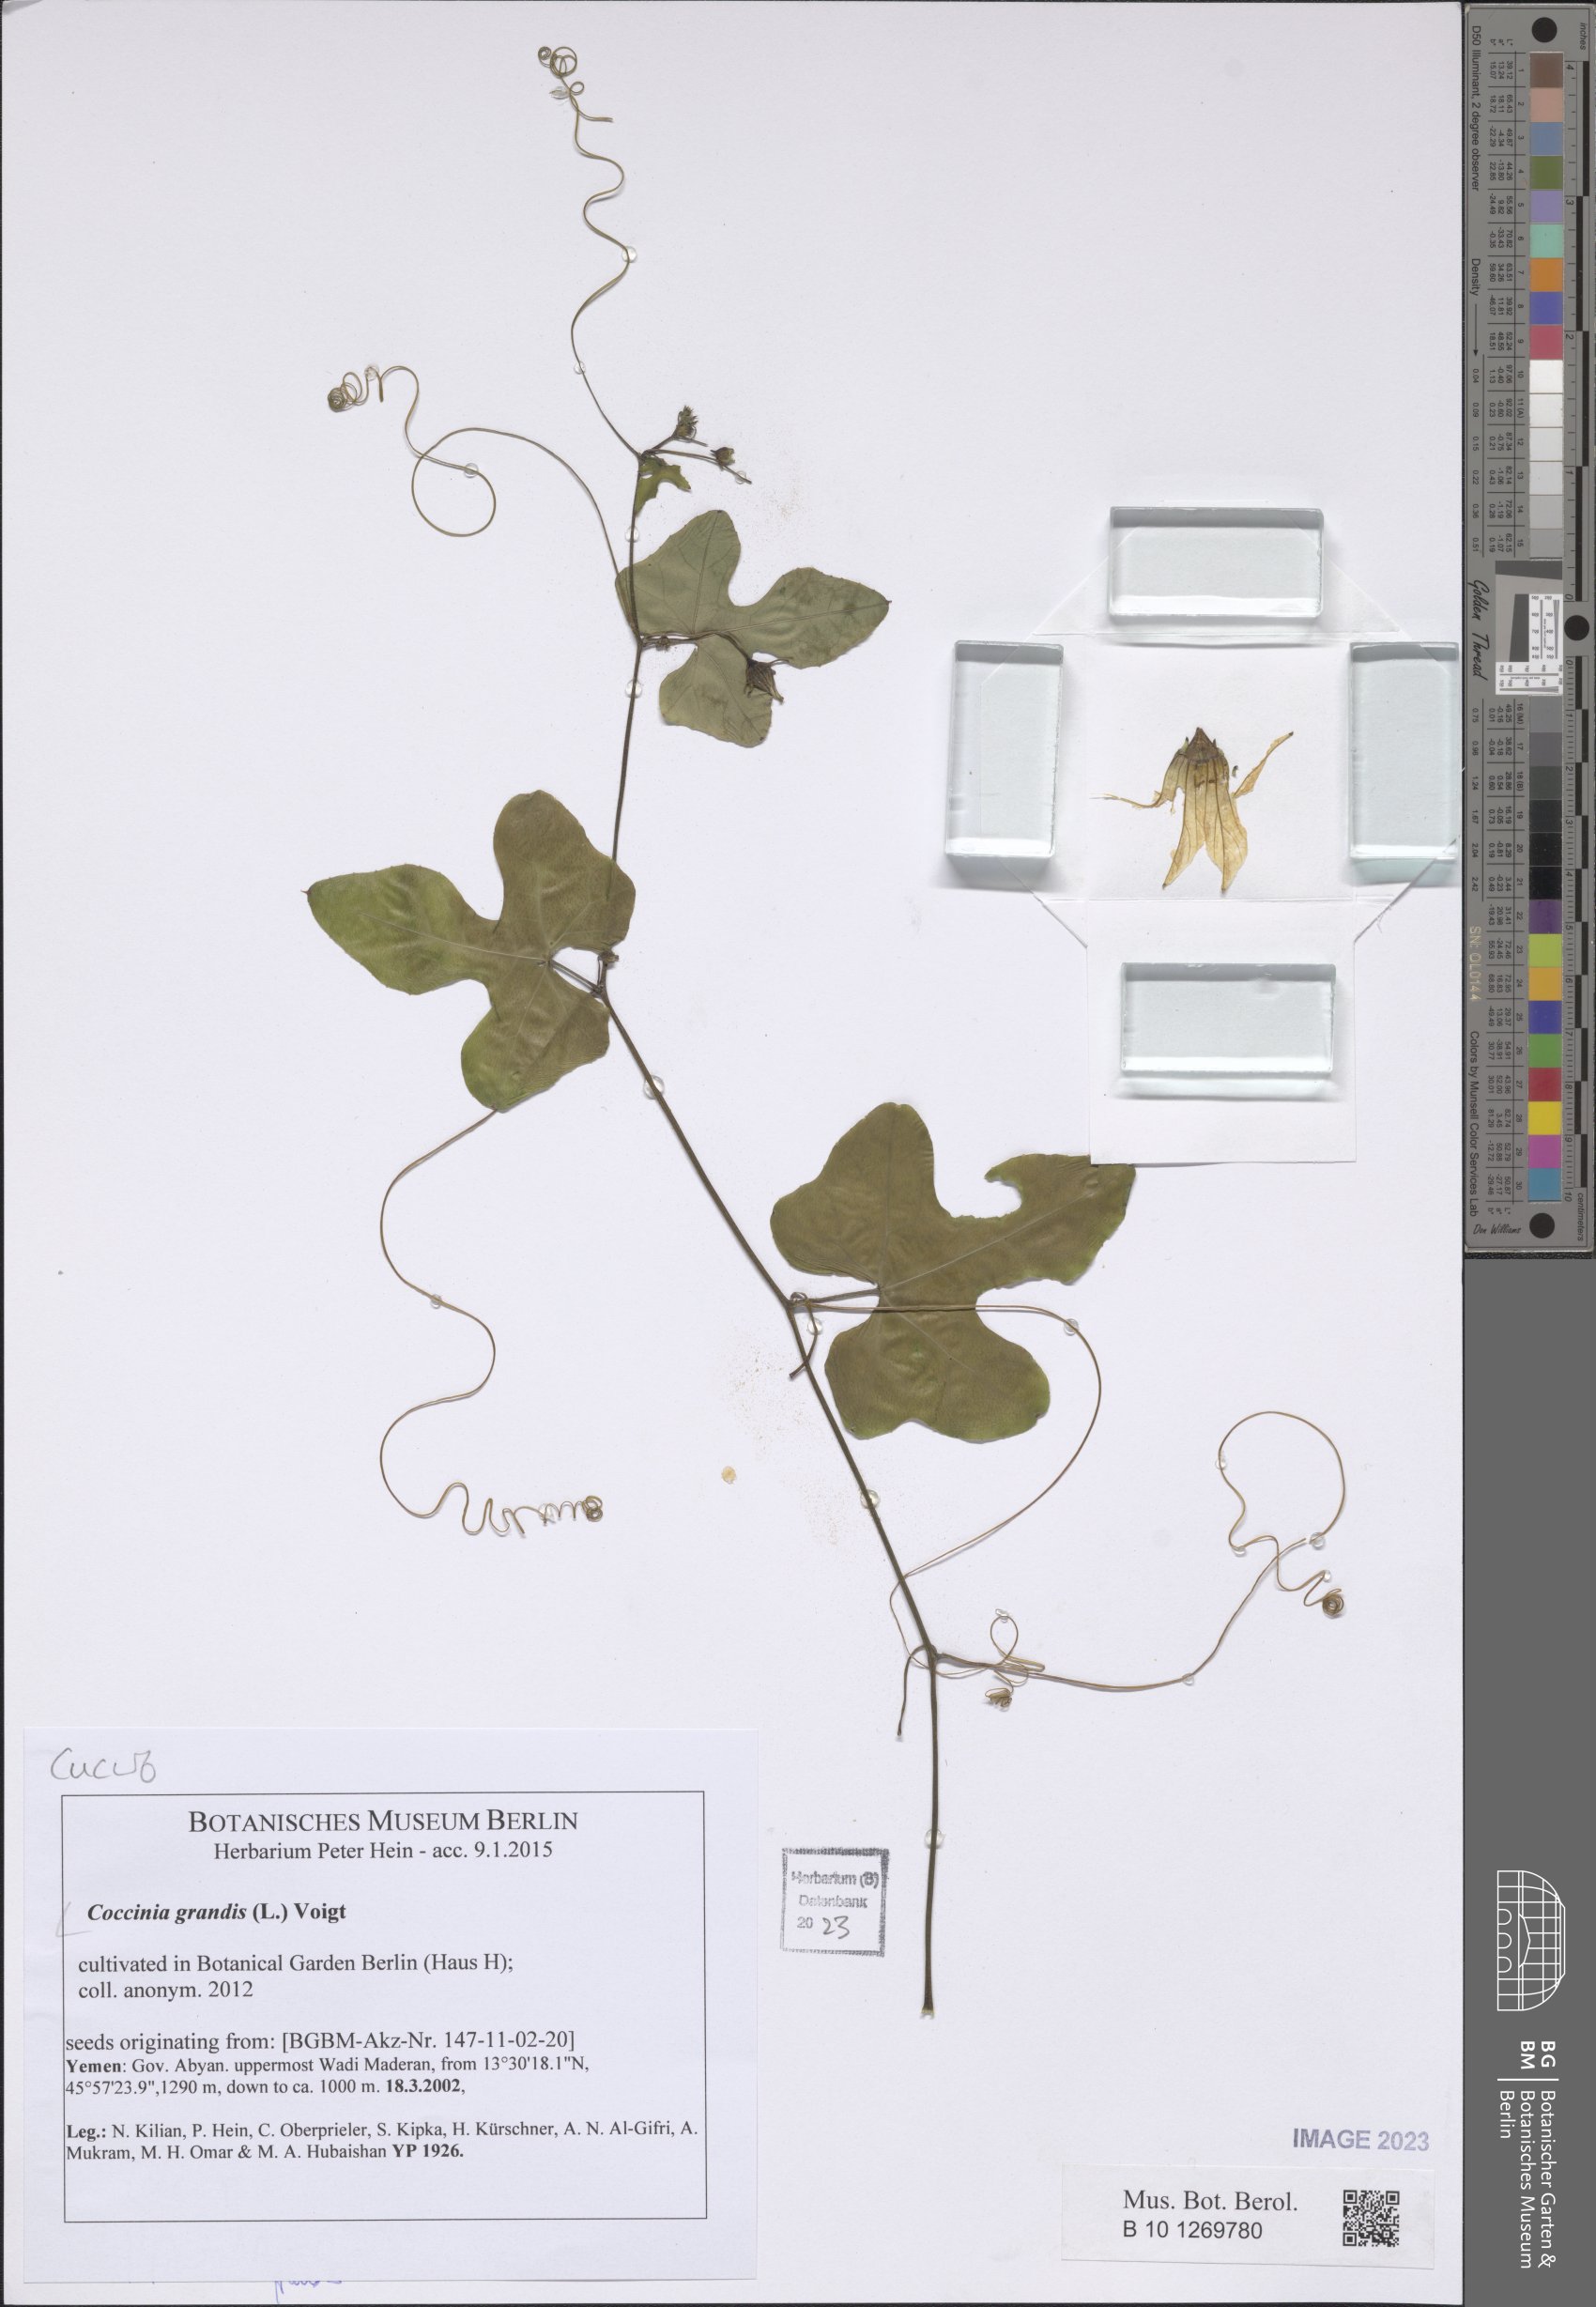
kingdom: Plantae
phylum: Tracheophyta
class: Magnoliopsida
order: Cucurbitales
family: Cucurbitaceae
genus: Coccinia
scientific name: Coccinia grandis
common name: Ivy gourd
